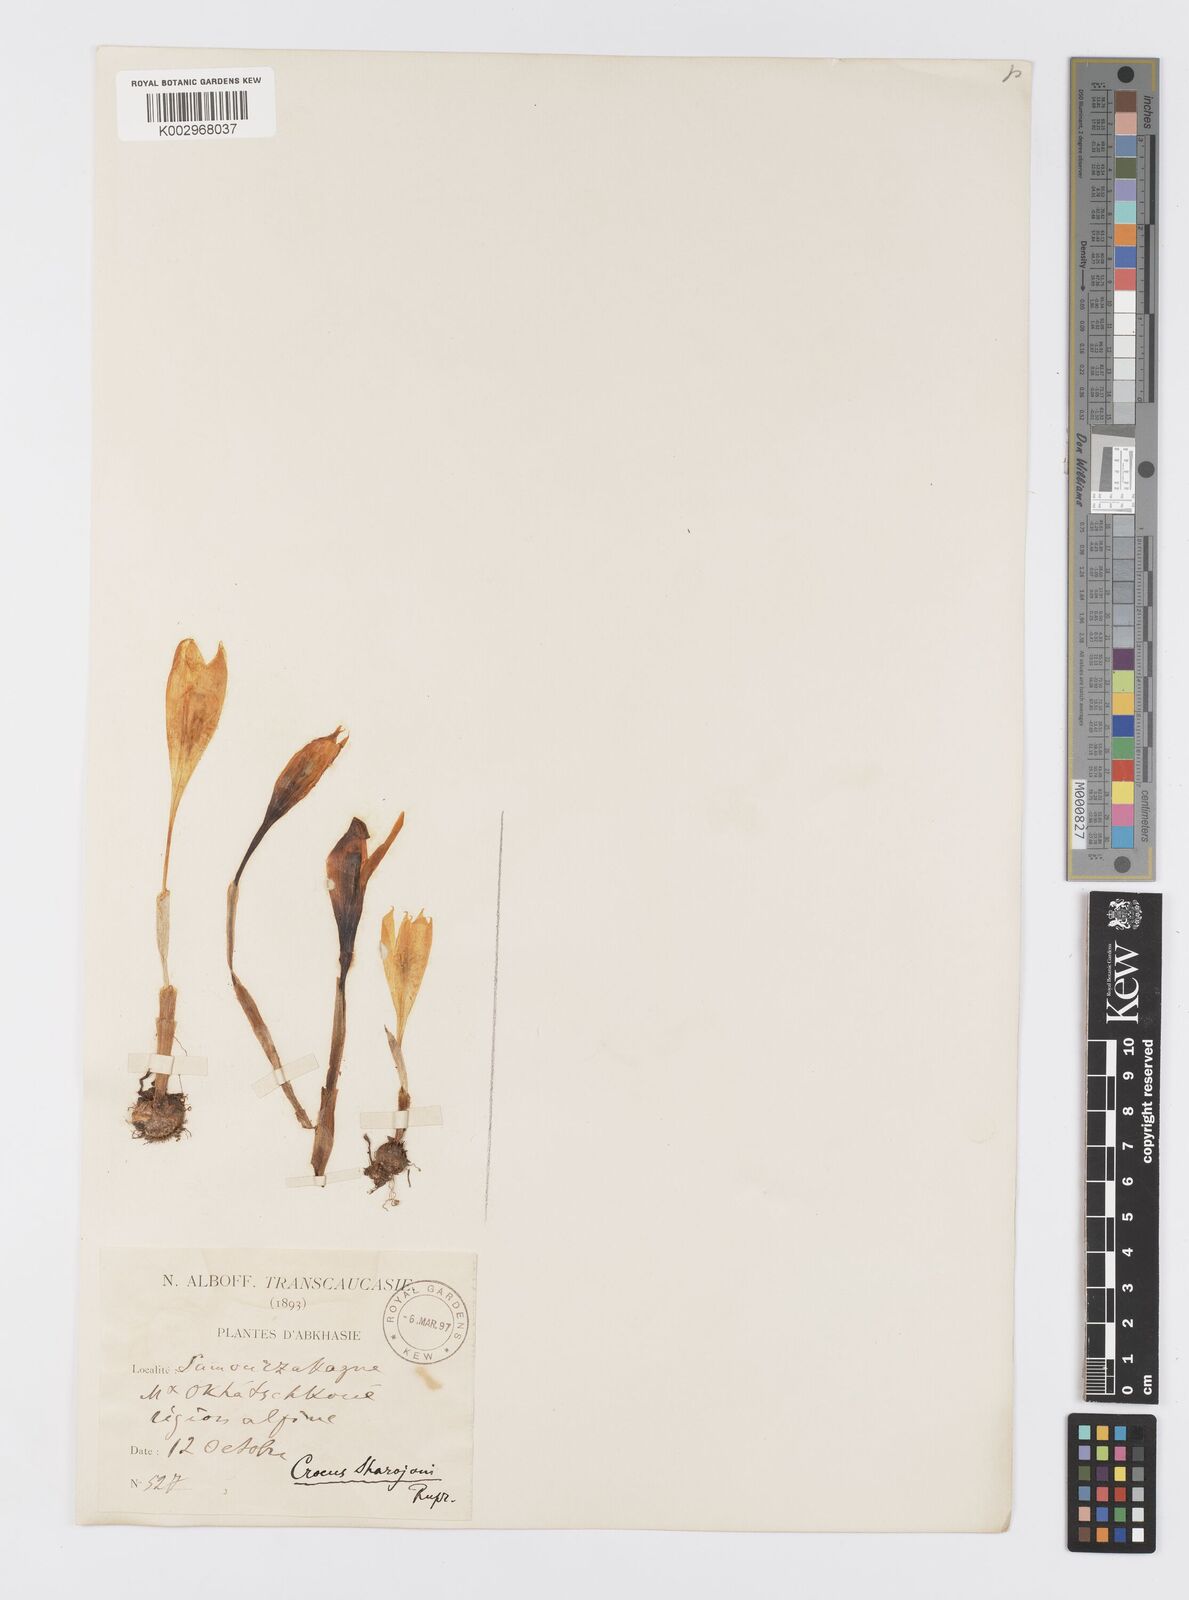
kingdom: Plantae
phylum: Tracheophyta
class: Liliopsida
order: Asparagales
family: Iridaceae
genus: Crocus
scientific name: Crocus lazicus
